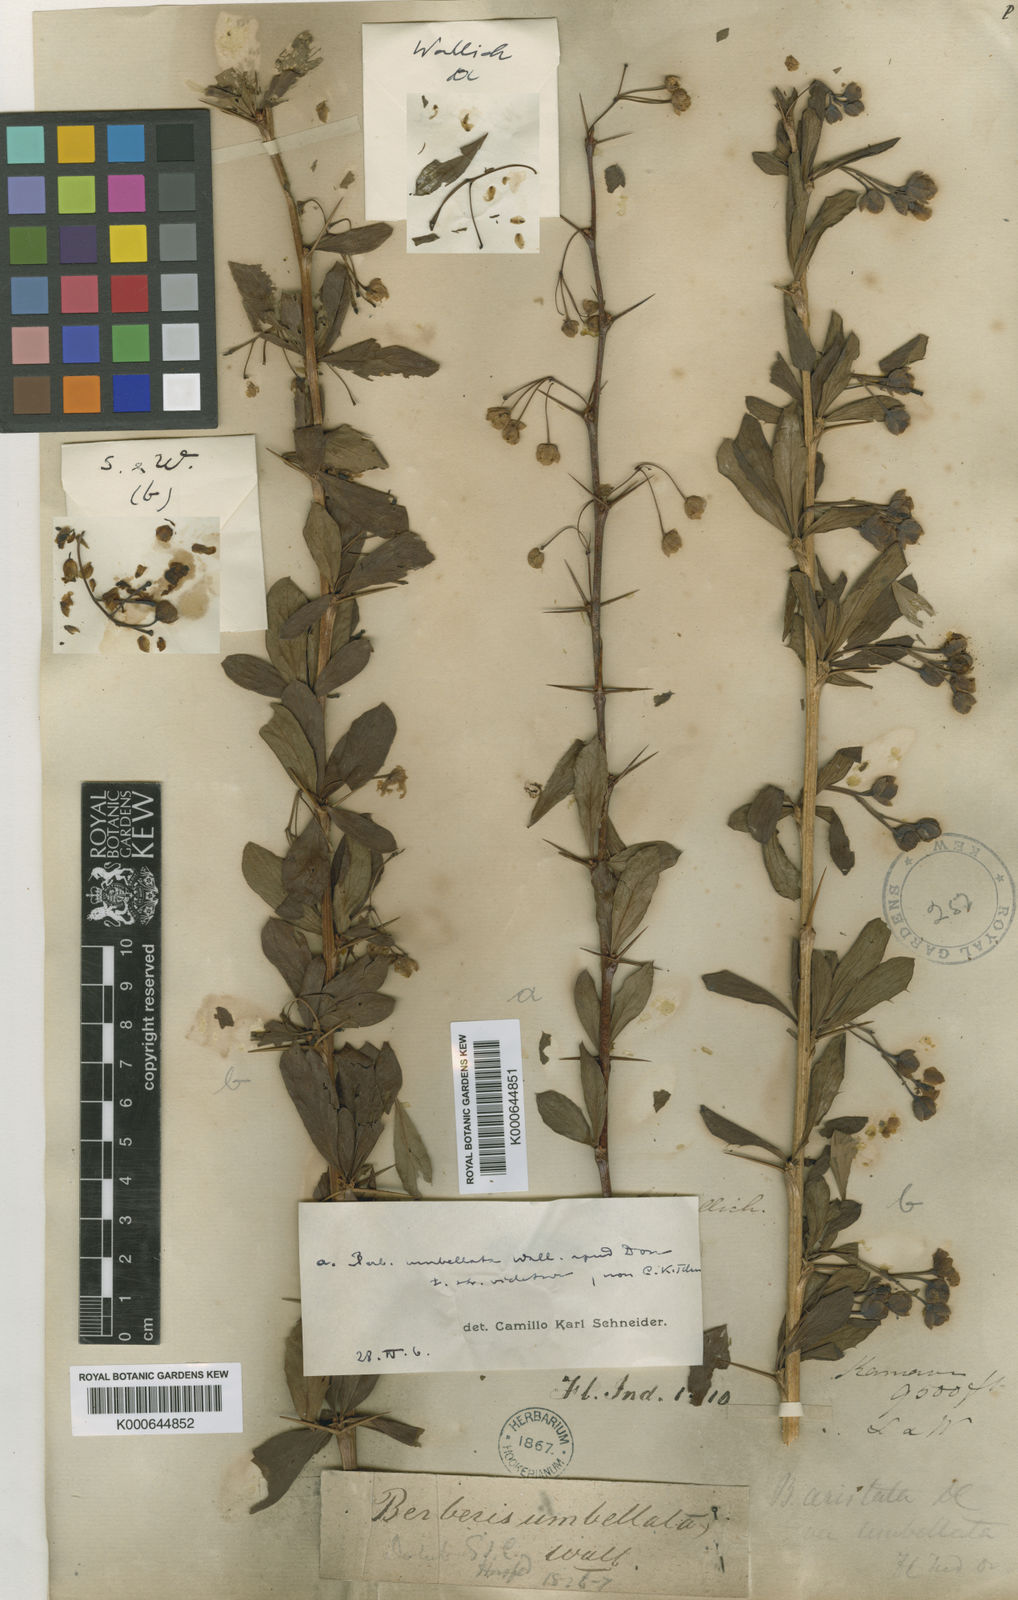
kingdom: Plantae
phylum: Tracheophyta
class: Magnoliopsida
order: Ranunculales
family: Berberidaceae
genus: Berberis
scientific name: Berberis umbellata
